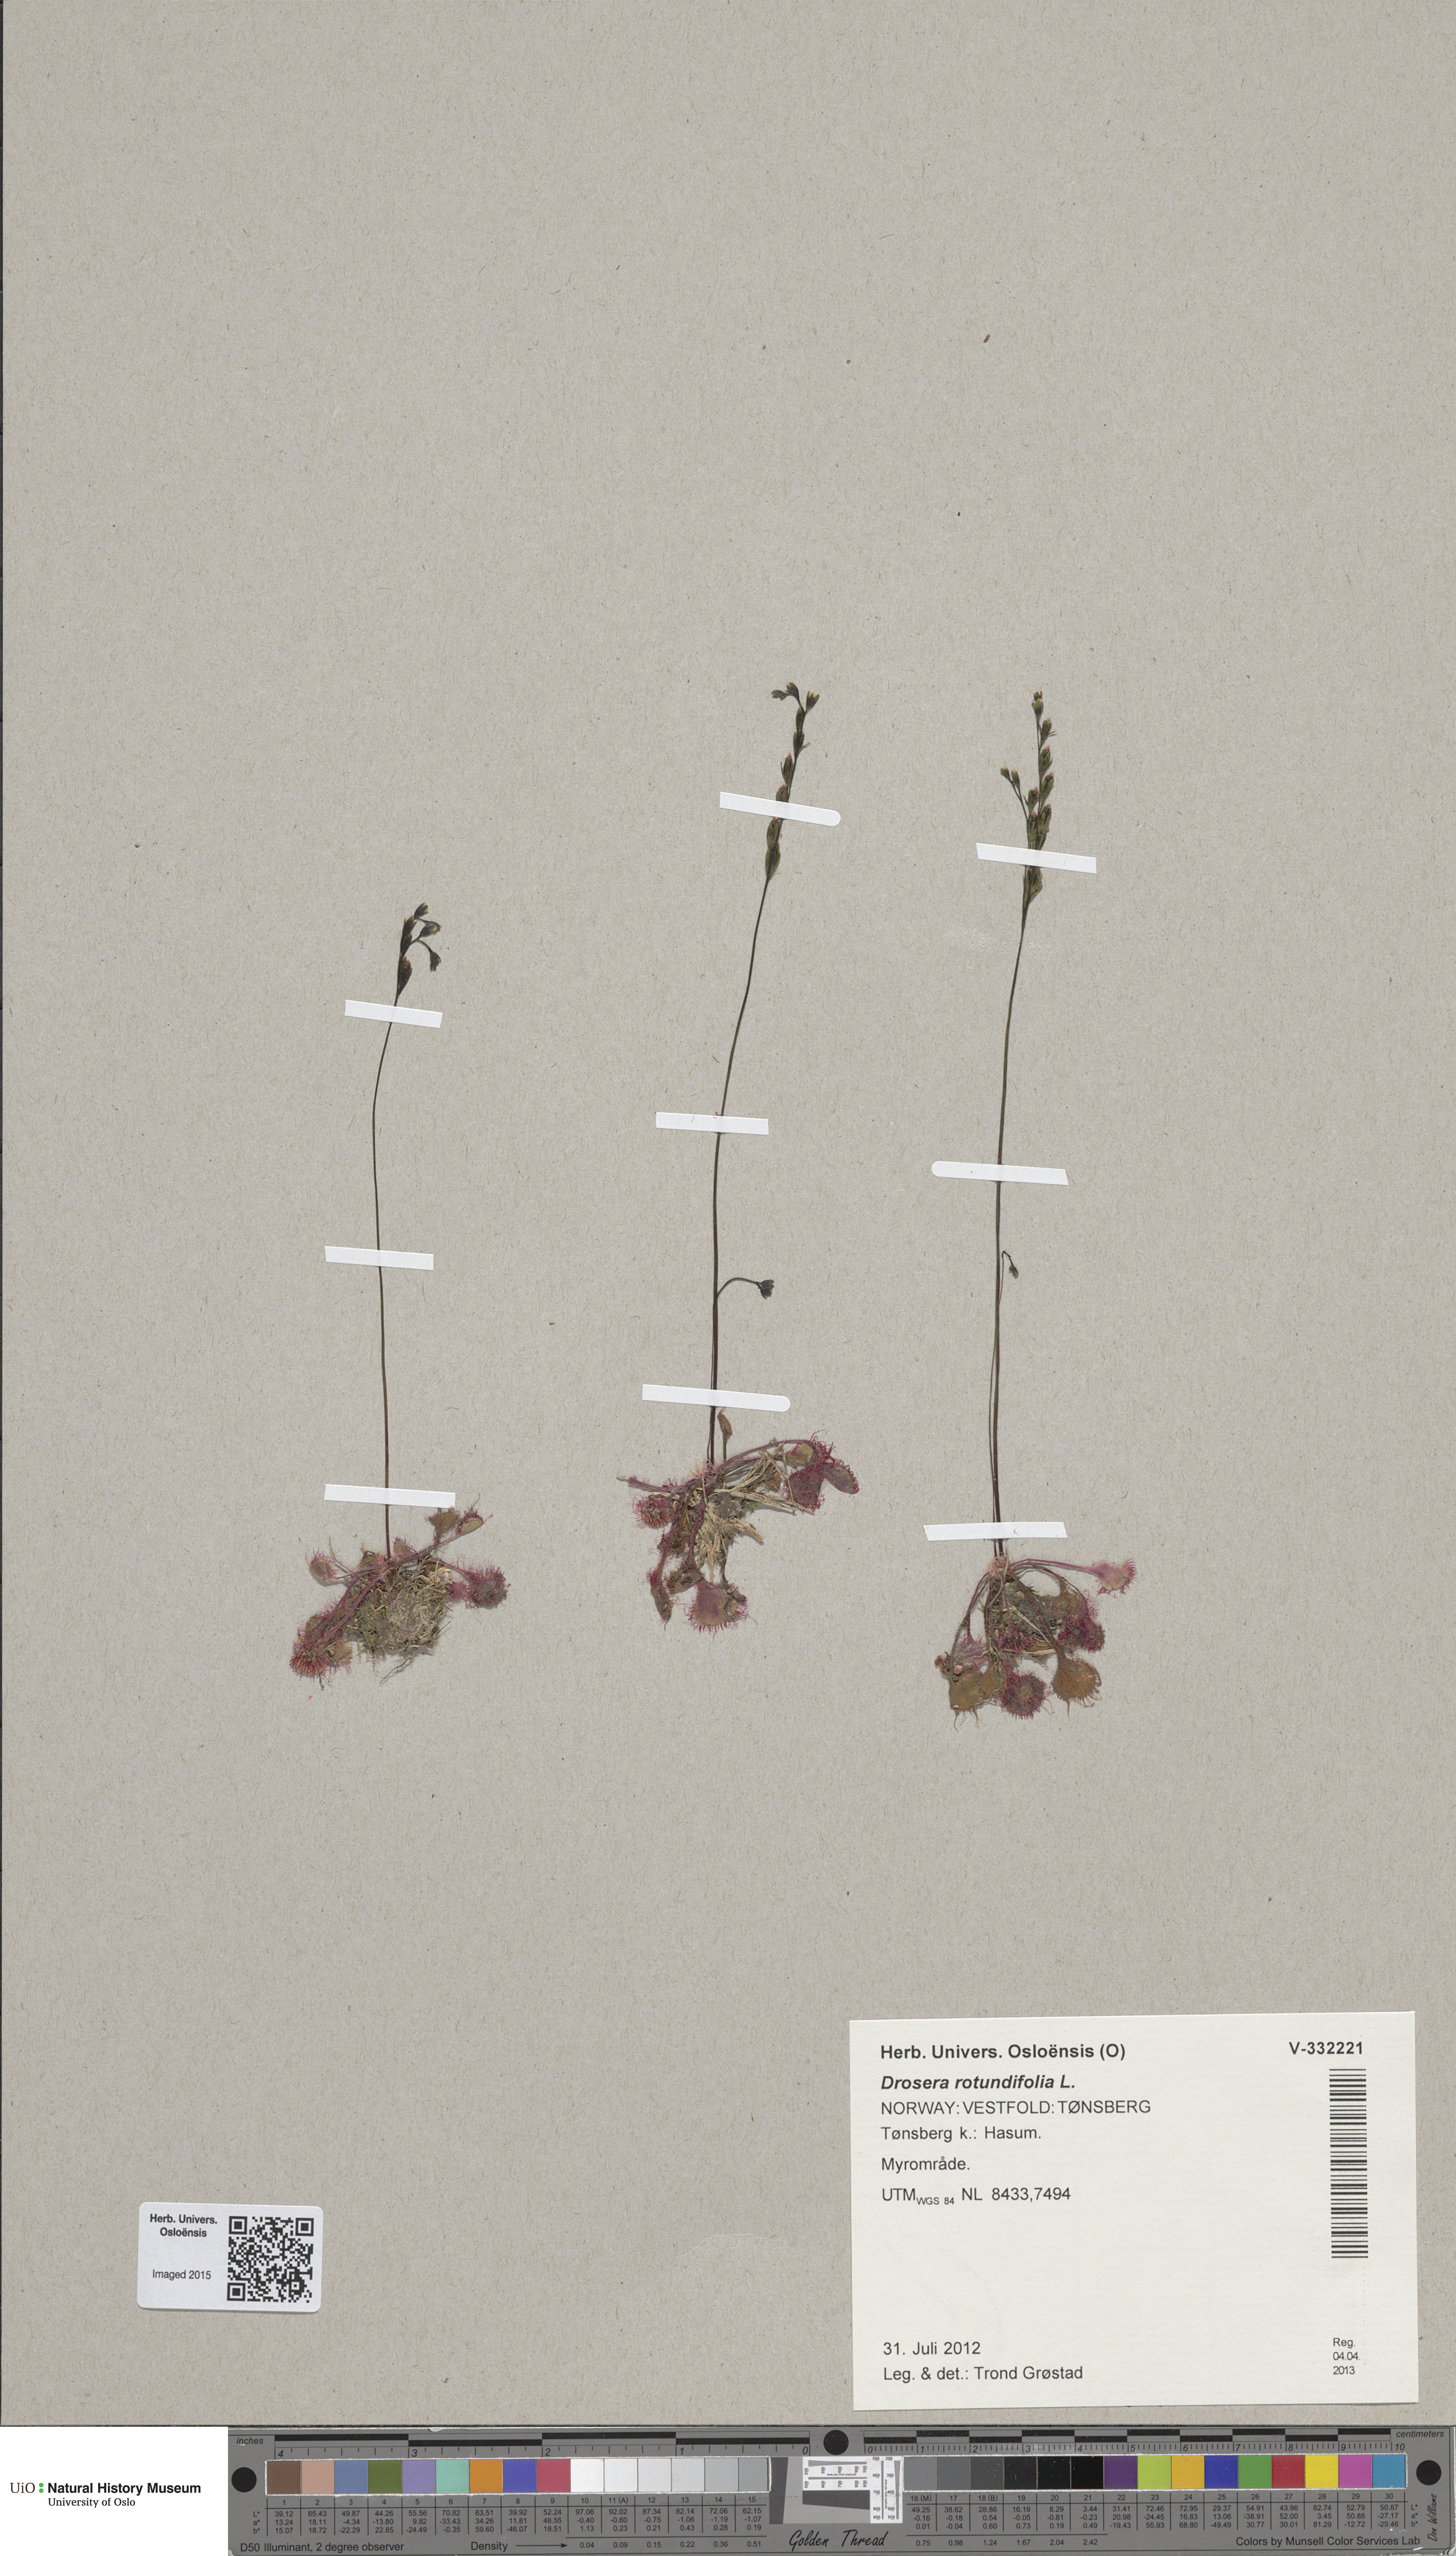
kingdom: Plantae
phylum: Tracheophyta
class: Magnoliopsida
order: Caryophyllales
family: Droseraceae
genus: Drosera
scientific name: Drosera rotundifolia
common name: Round-leaved sundew
